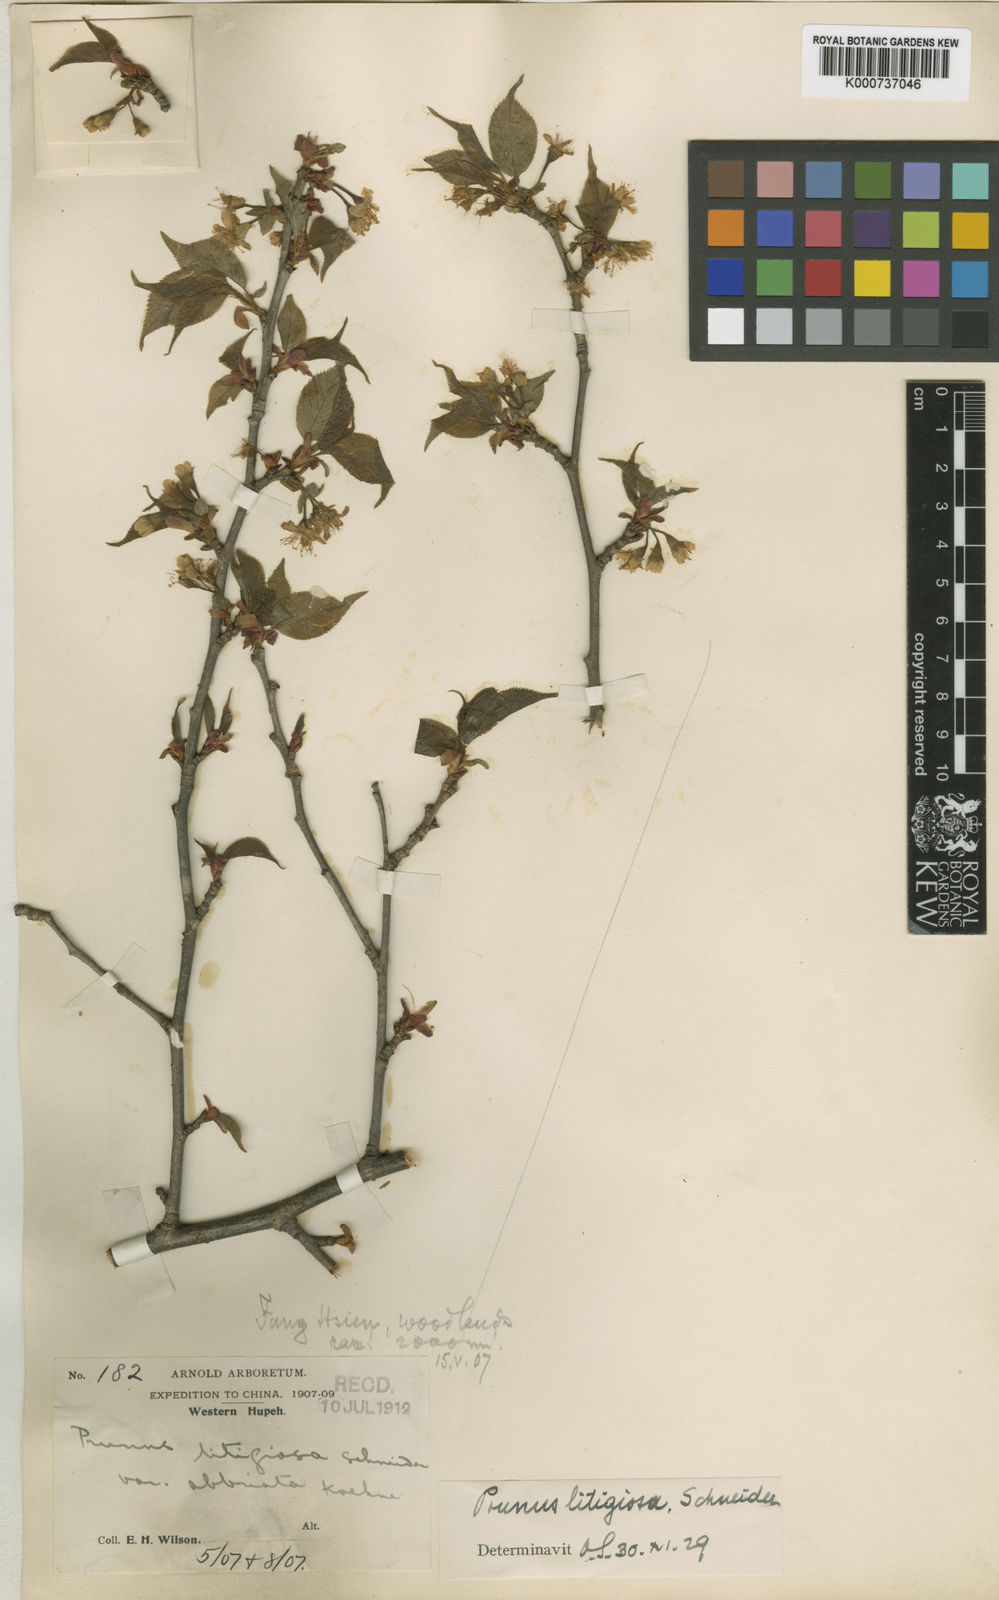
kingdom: Plantae
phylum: Tracheophyta
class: Magnoliopsida
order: Rosales
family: Rosaceae
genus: Prunus
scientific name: Prunus clarofolia
